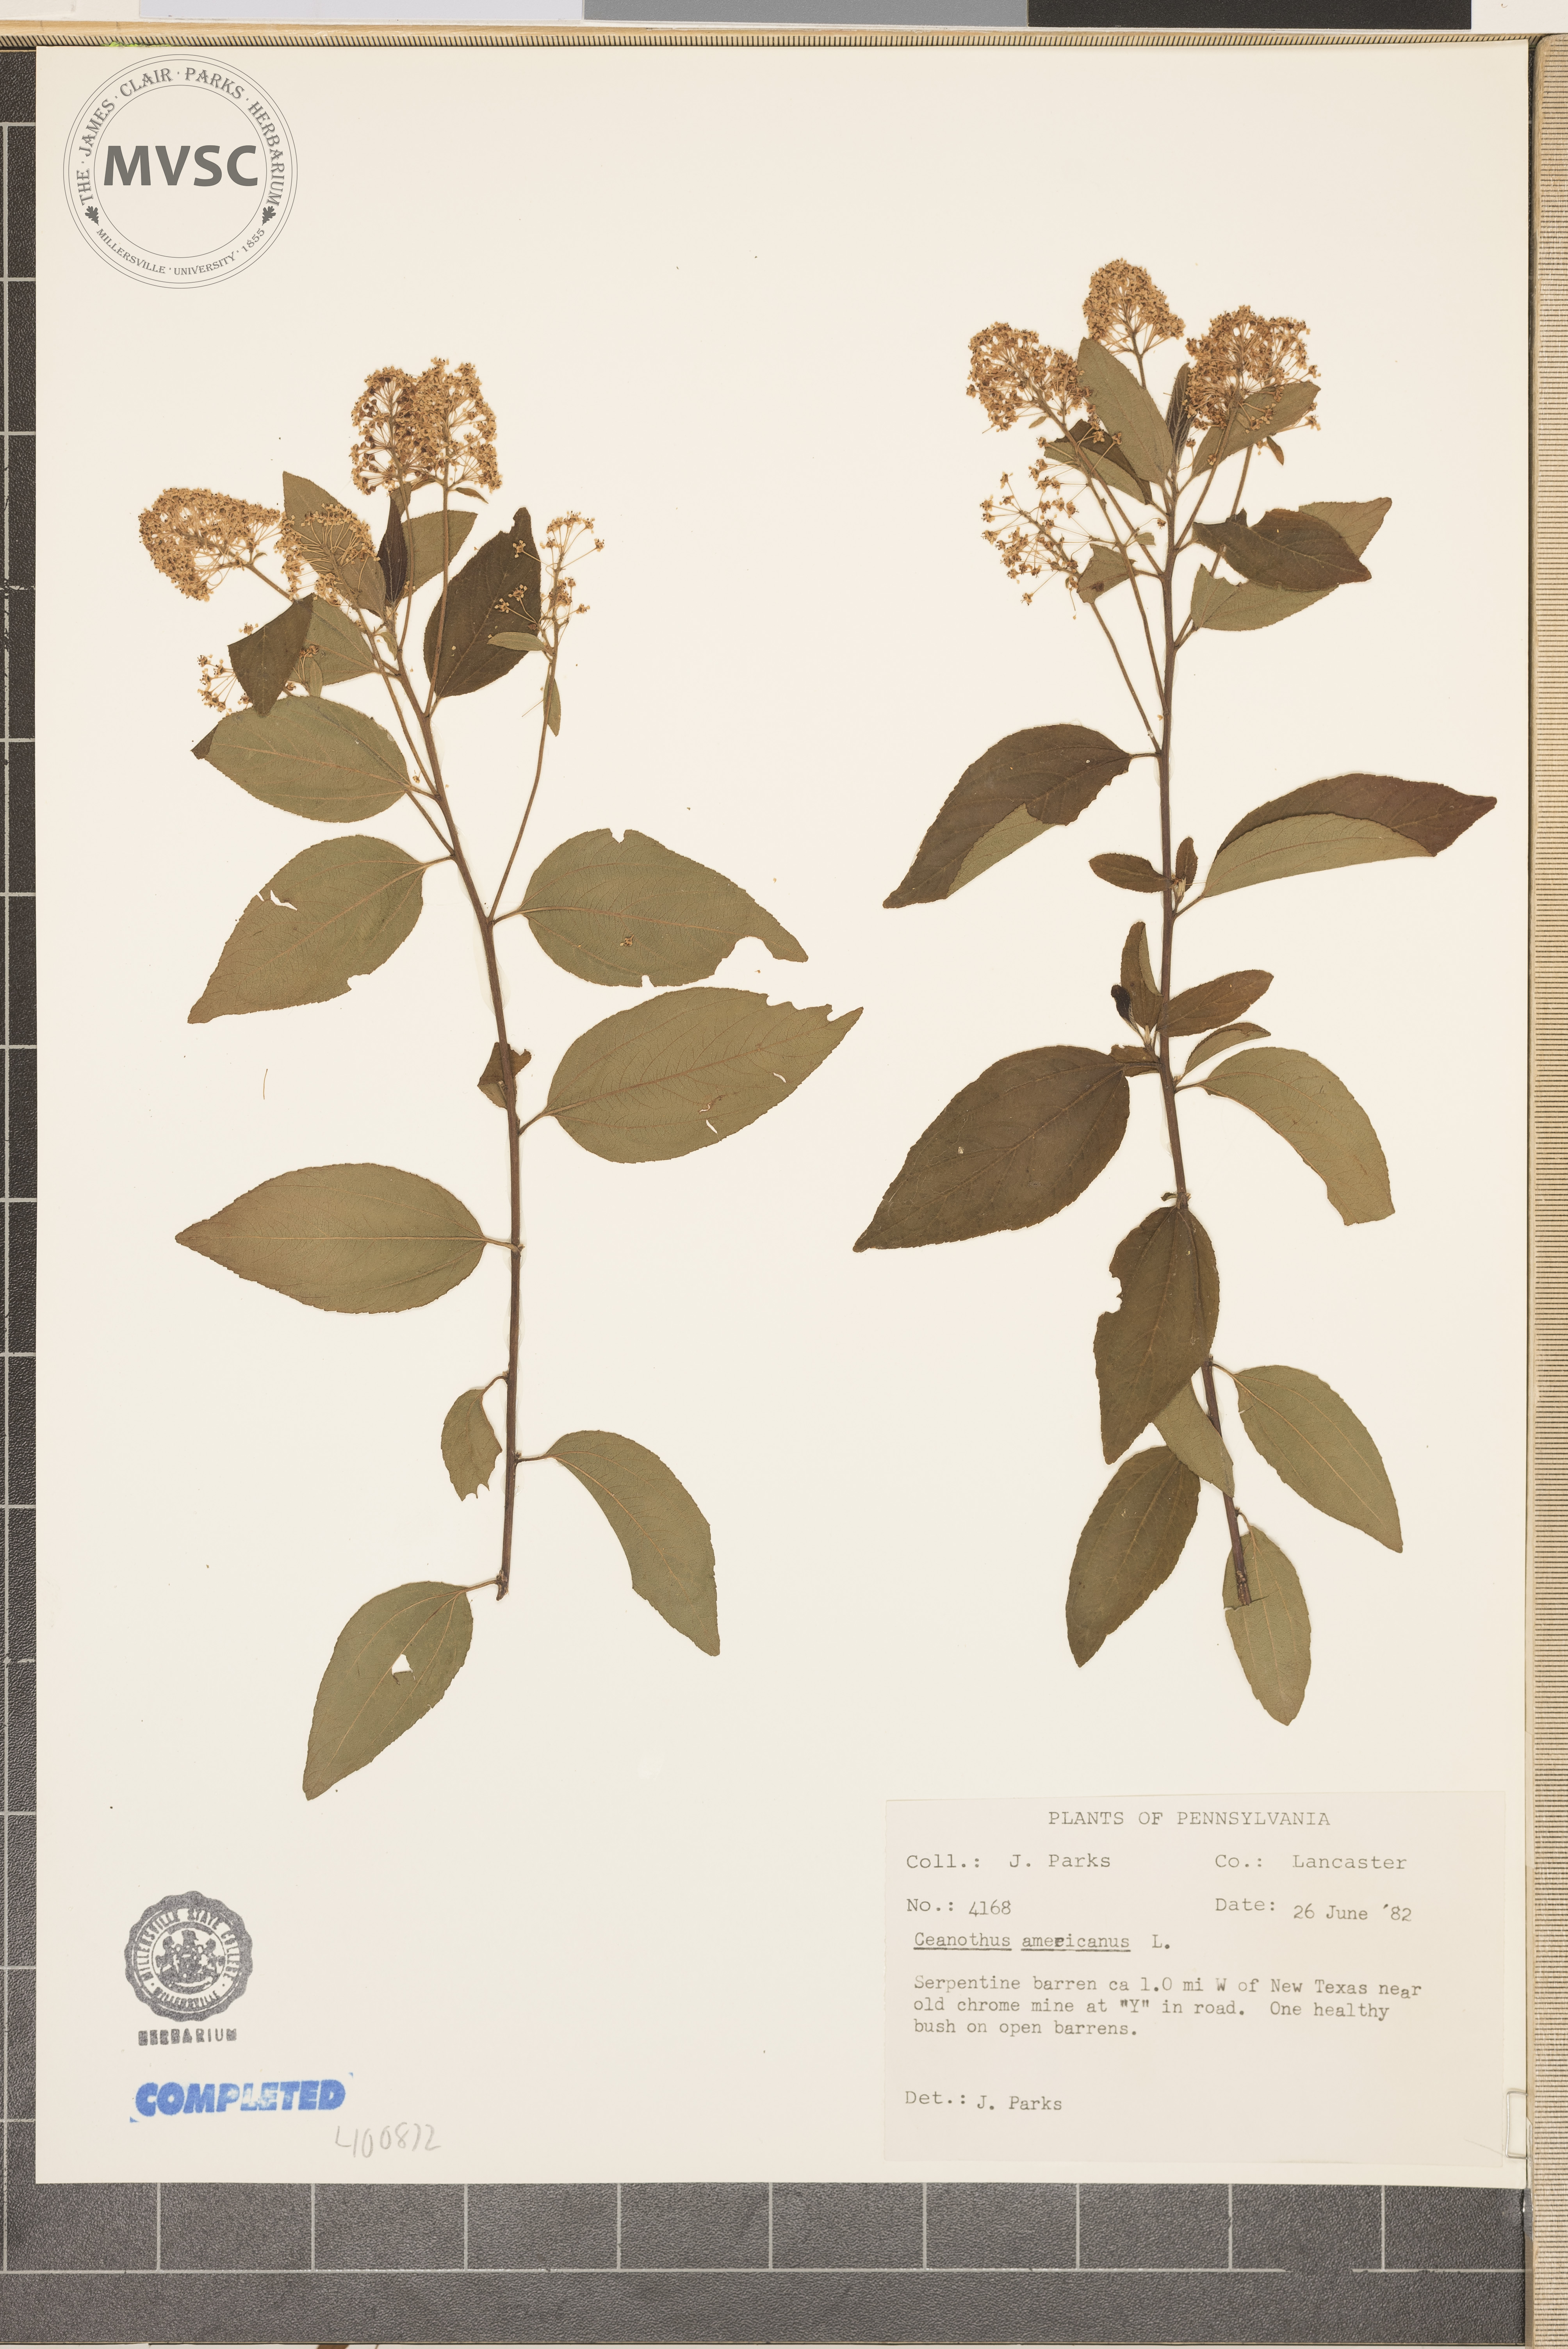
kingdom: Plantae
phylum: Tracheophyta
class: Magnoliopsida
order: Rosales
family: Rhamnaceae
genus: Ceanothus
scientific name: Ceanothus americanus
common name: New Jersey tea
